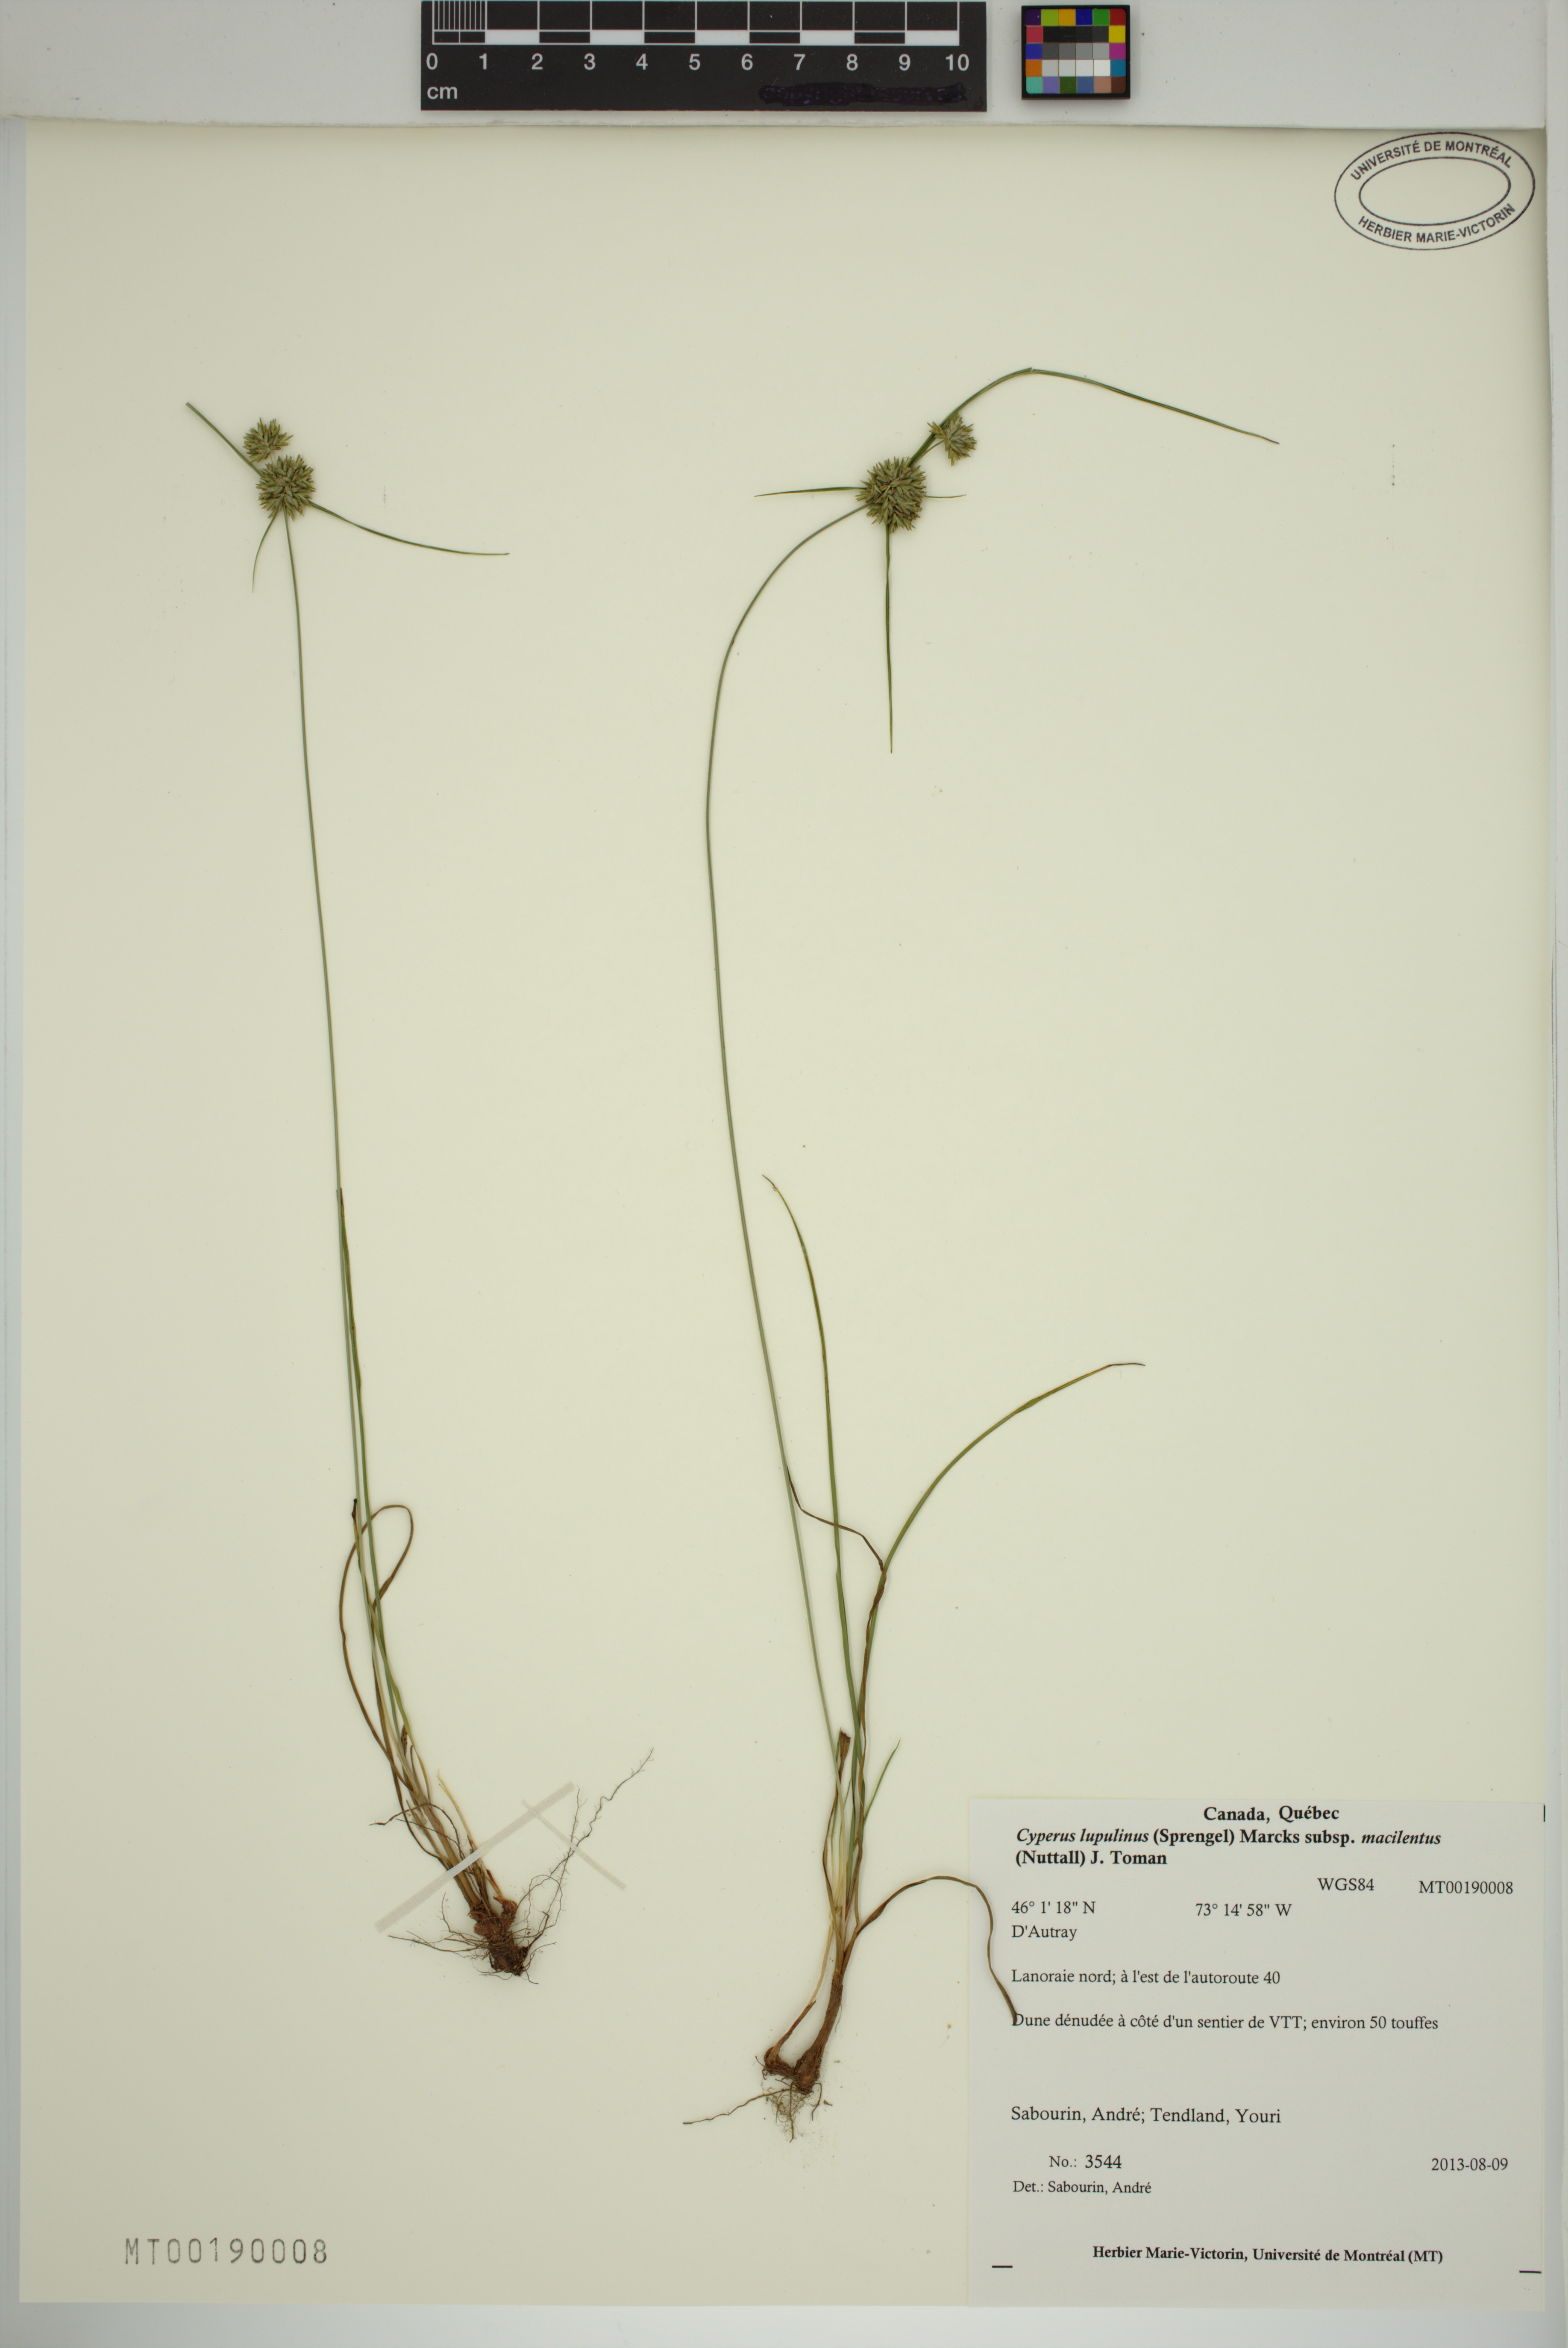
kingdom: Plantae
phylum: Tracheophyta
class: Liliopsida
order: Poales
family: Cyperaceae
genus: Cyperus
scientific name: Cyperus lupulinus
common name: Great plains flatsedge
